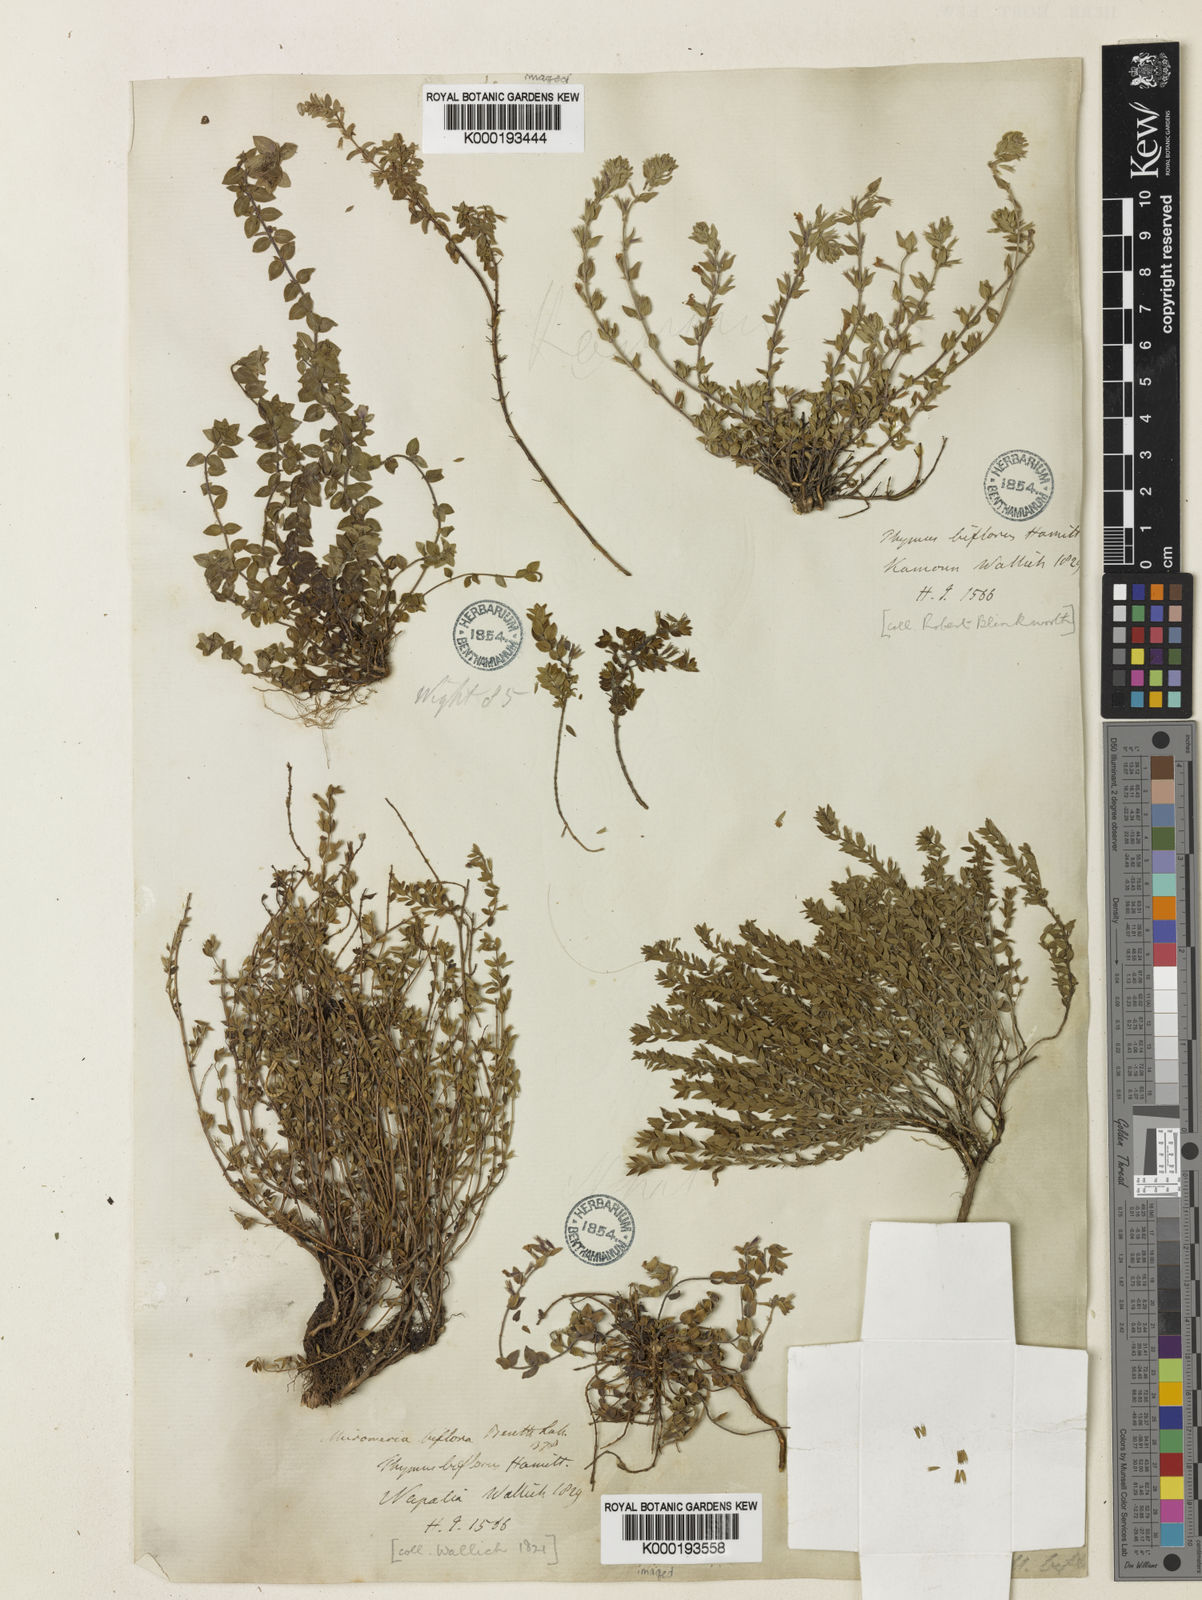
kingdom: Plantae
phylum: Tracheophyta
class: Magnoliopsida
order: Lamiales
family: Lamiaceae
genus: Micromeria
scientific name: Micromeria biflora
